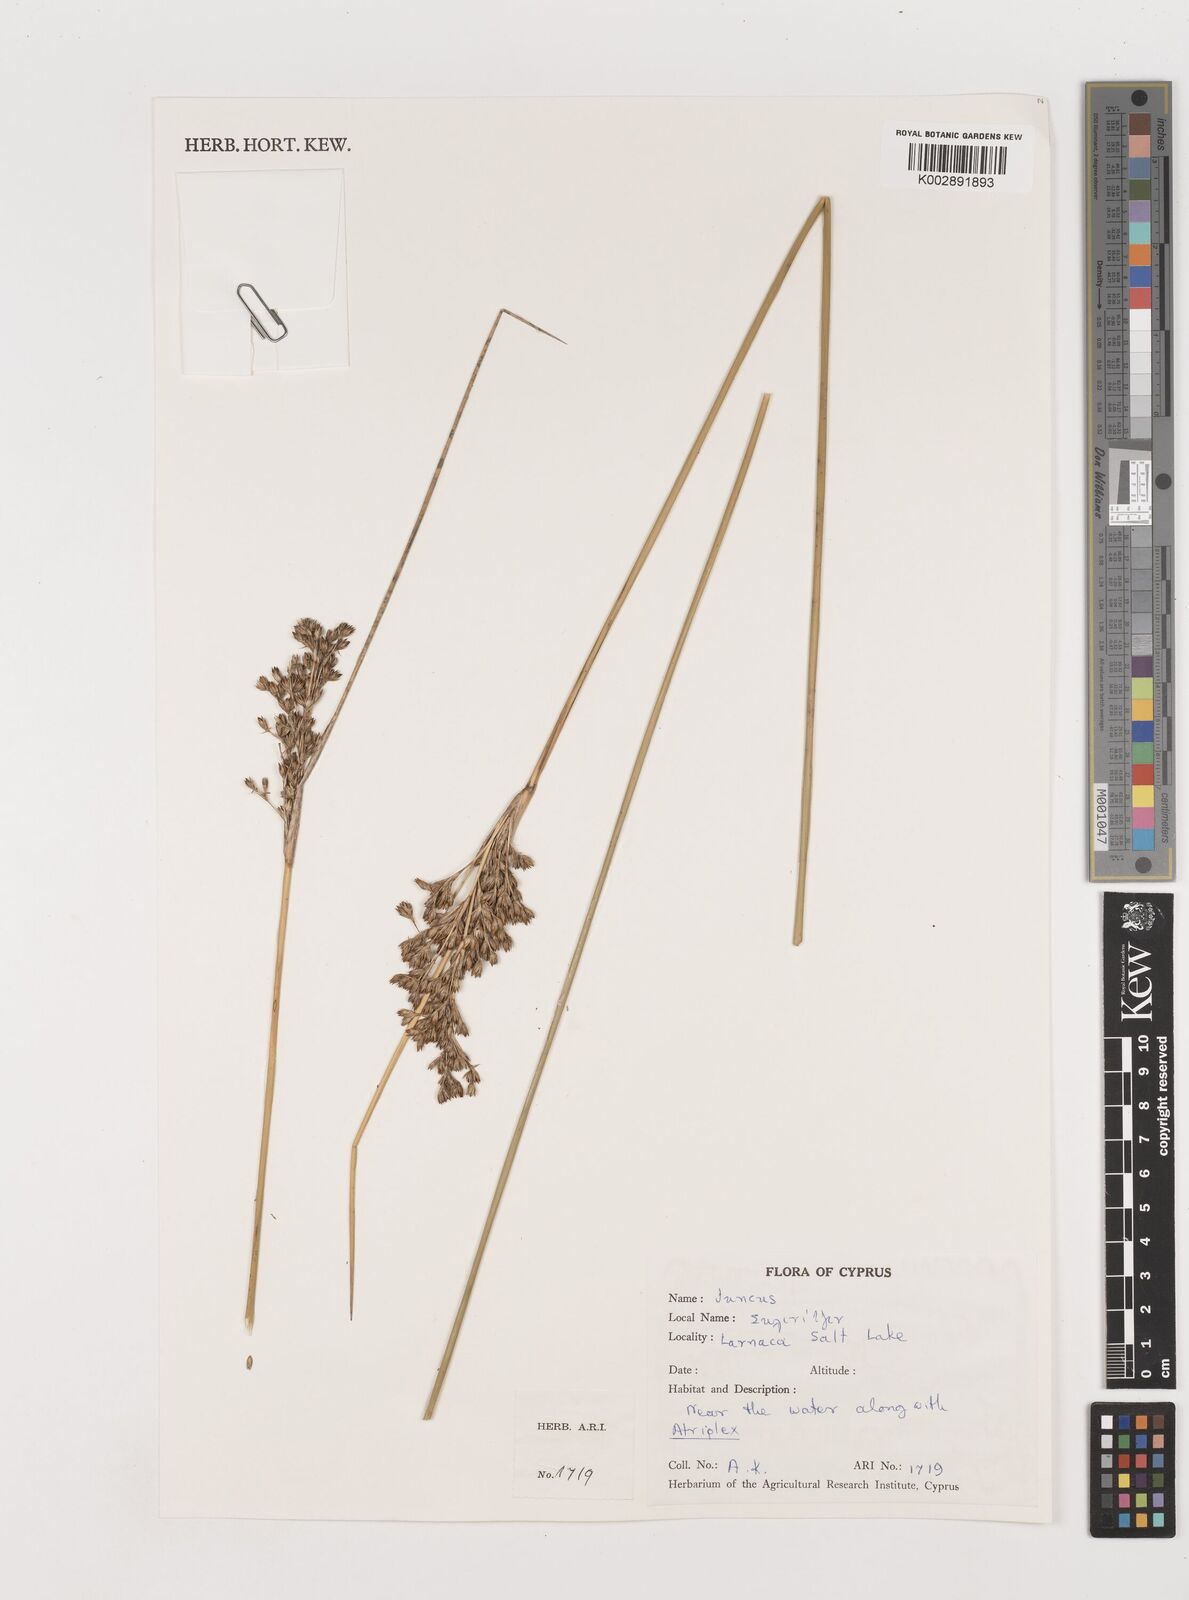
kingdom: Plantae
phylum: Tracheophyta
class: Liliopsida
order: Poales
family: Juncaceae
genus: Juncus
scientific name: Juncus
